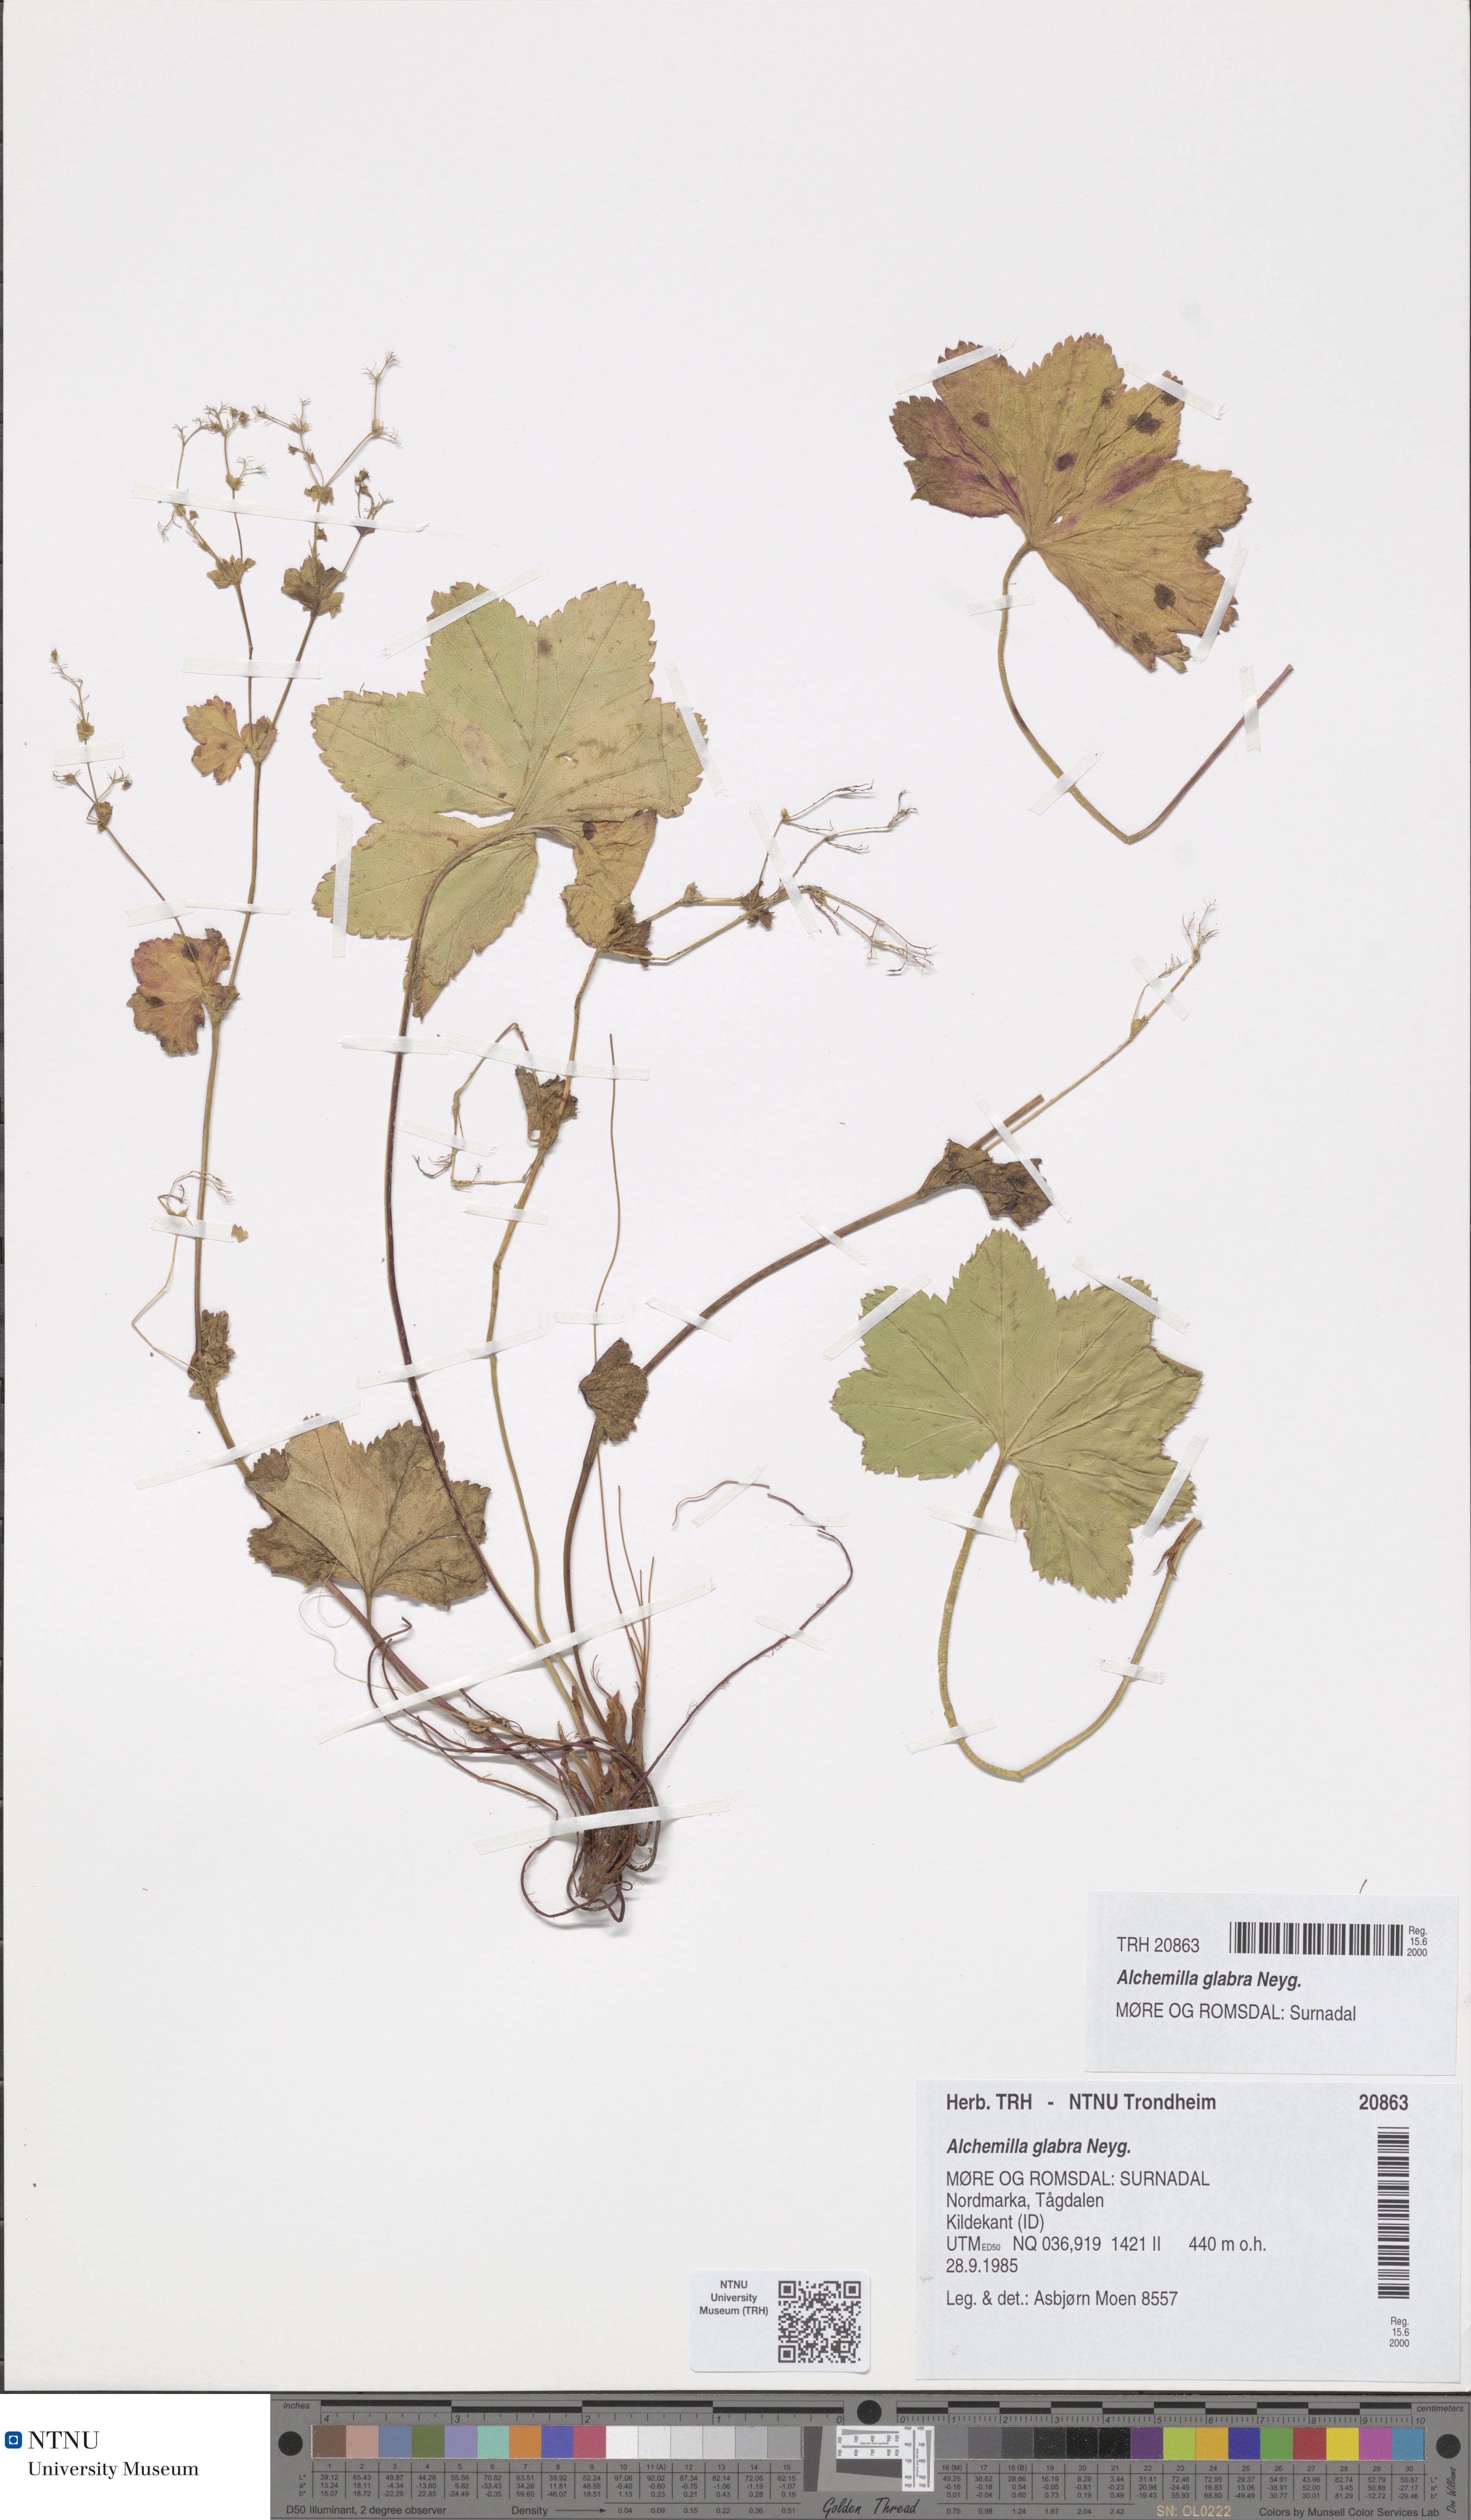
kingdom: Plantae
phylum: Tracheophyta
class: Magnoliopsida
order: Rosales
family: Rosaceae
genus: Alchemilla
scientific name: Alchemilla glabra
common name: Smooth lady's-mantle
